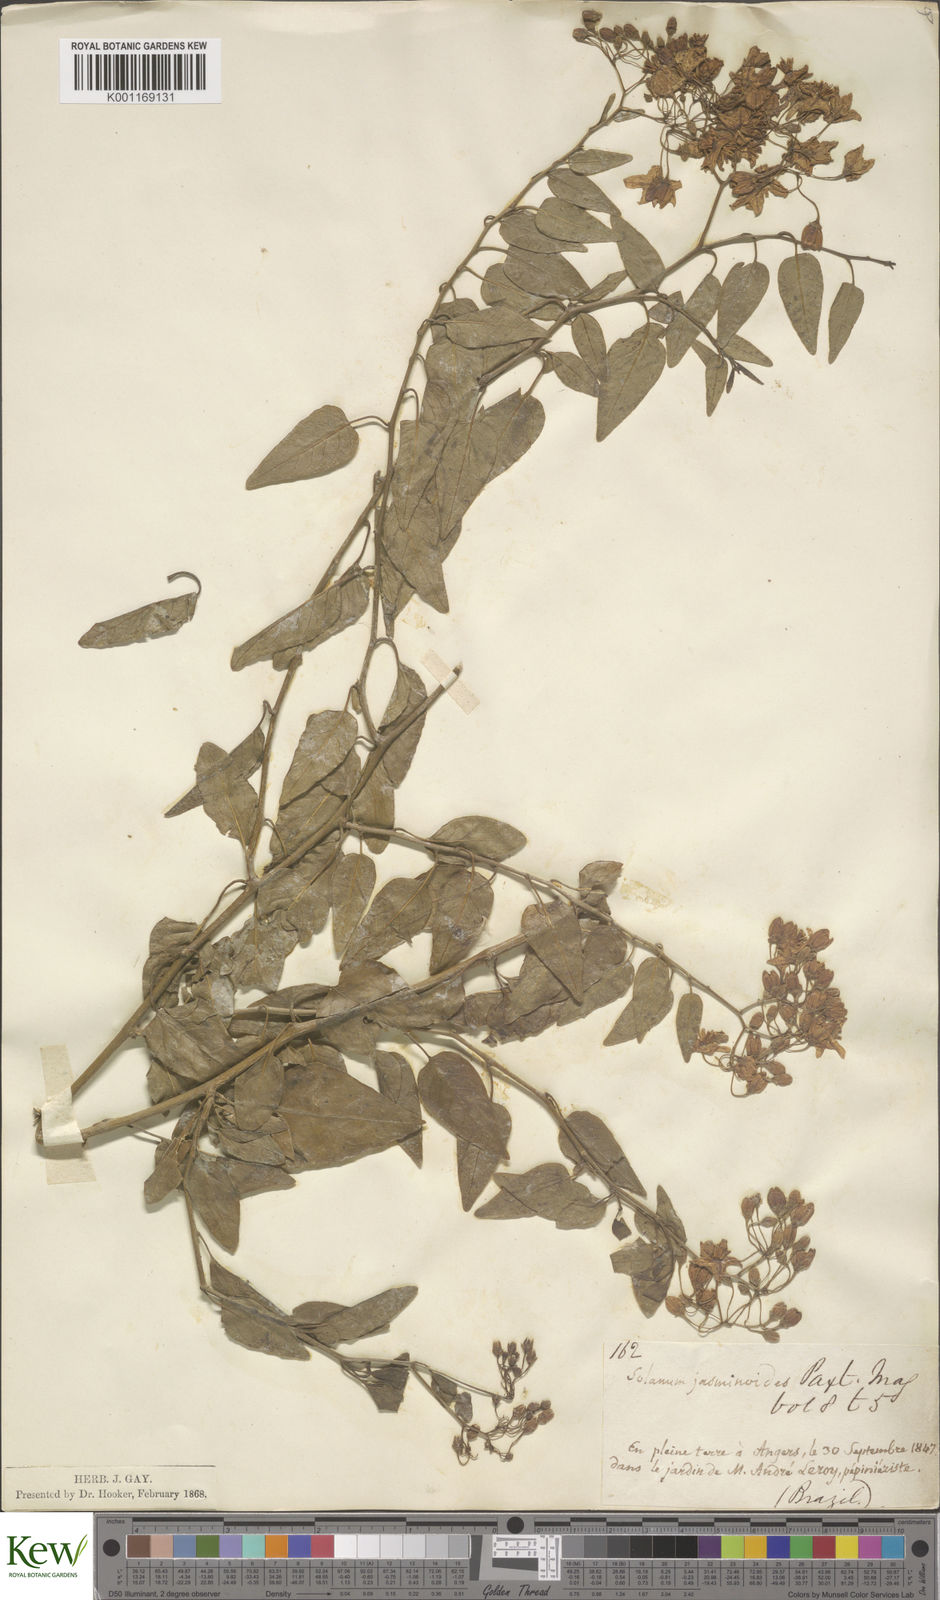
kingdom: Plantae
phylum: Tracheophyta
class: Magnoliopsida
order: Solanales
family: Solanaceae
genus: Solanum
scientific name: Solanum laxum
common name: Nightshade
